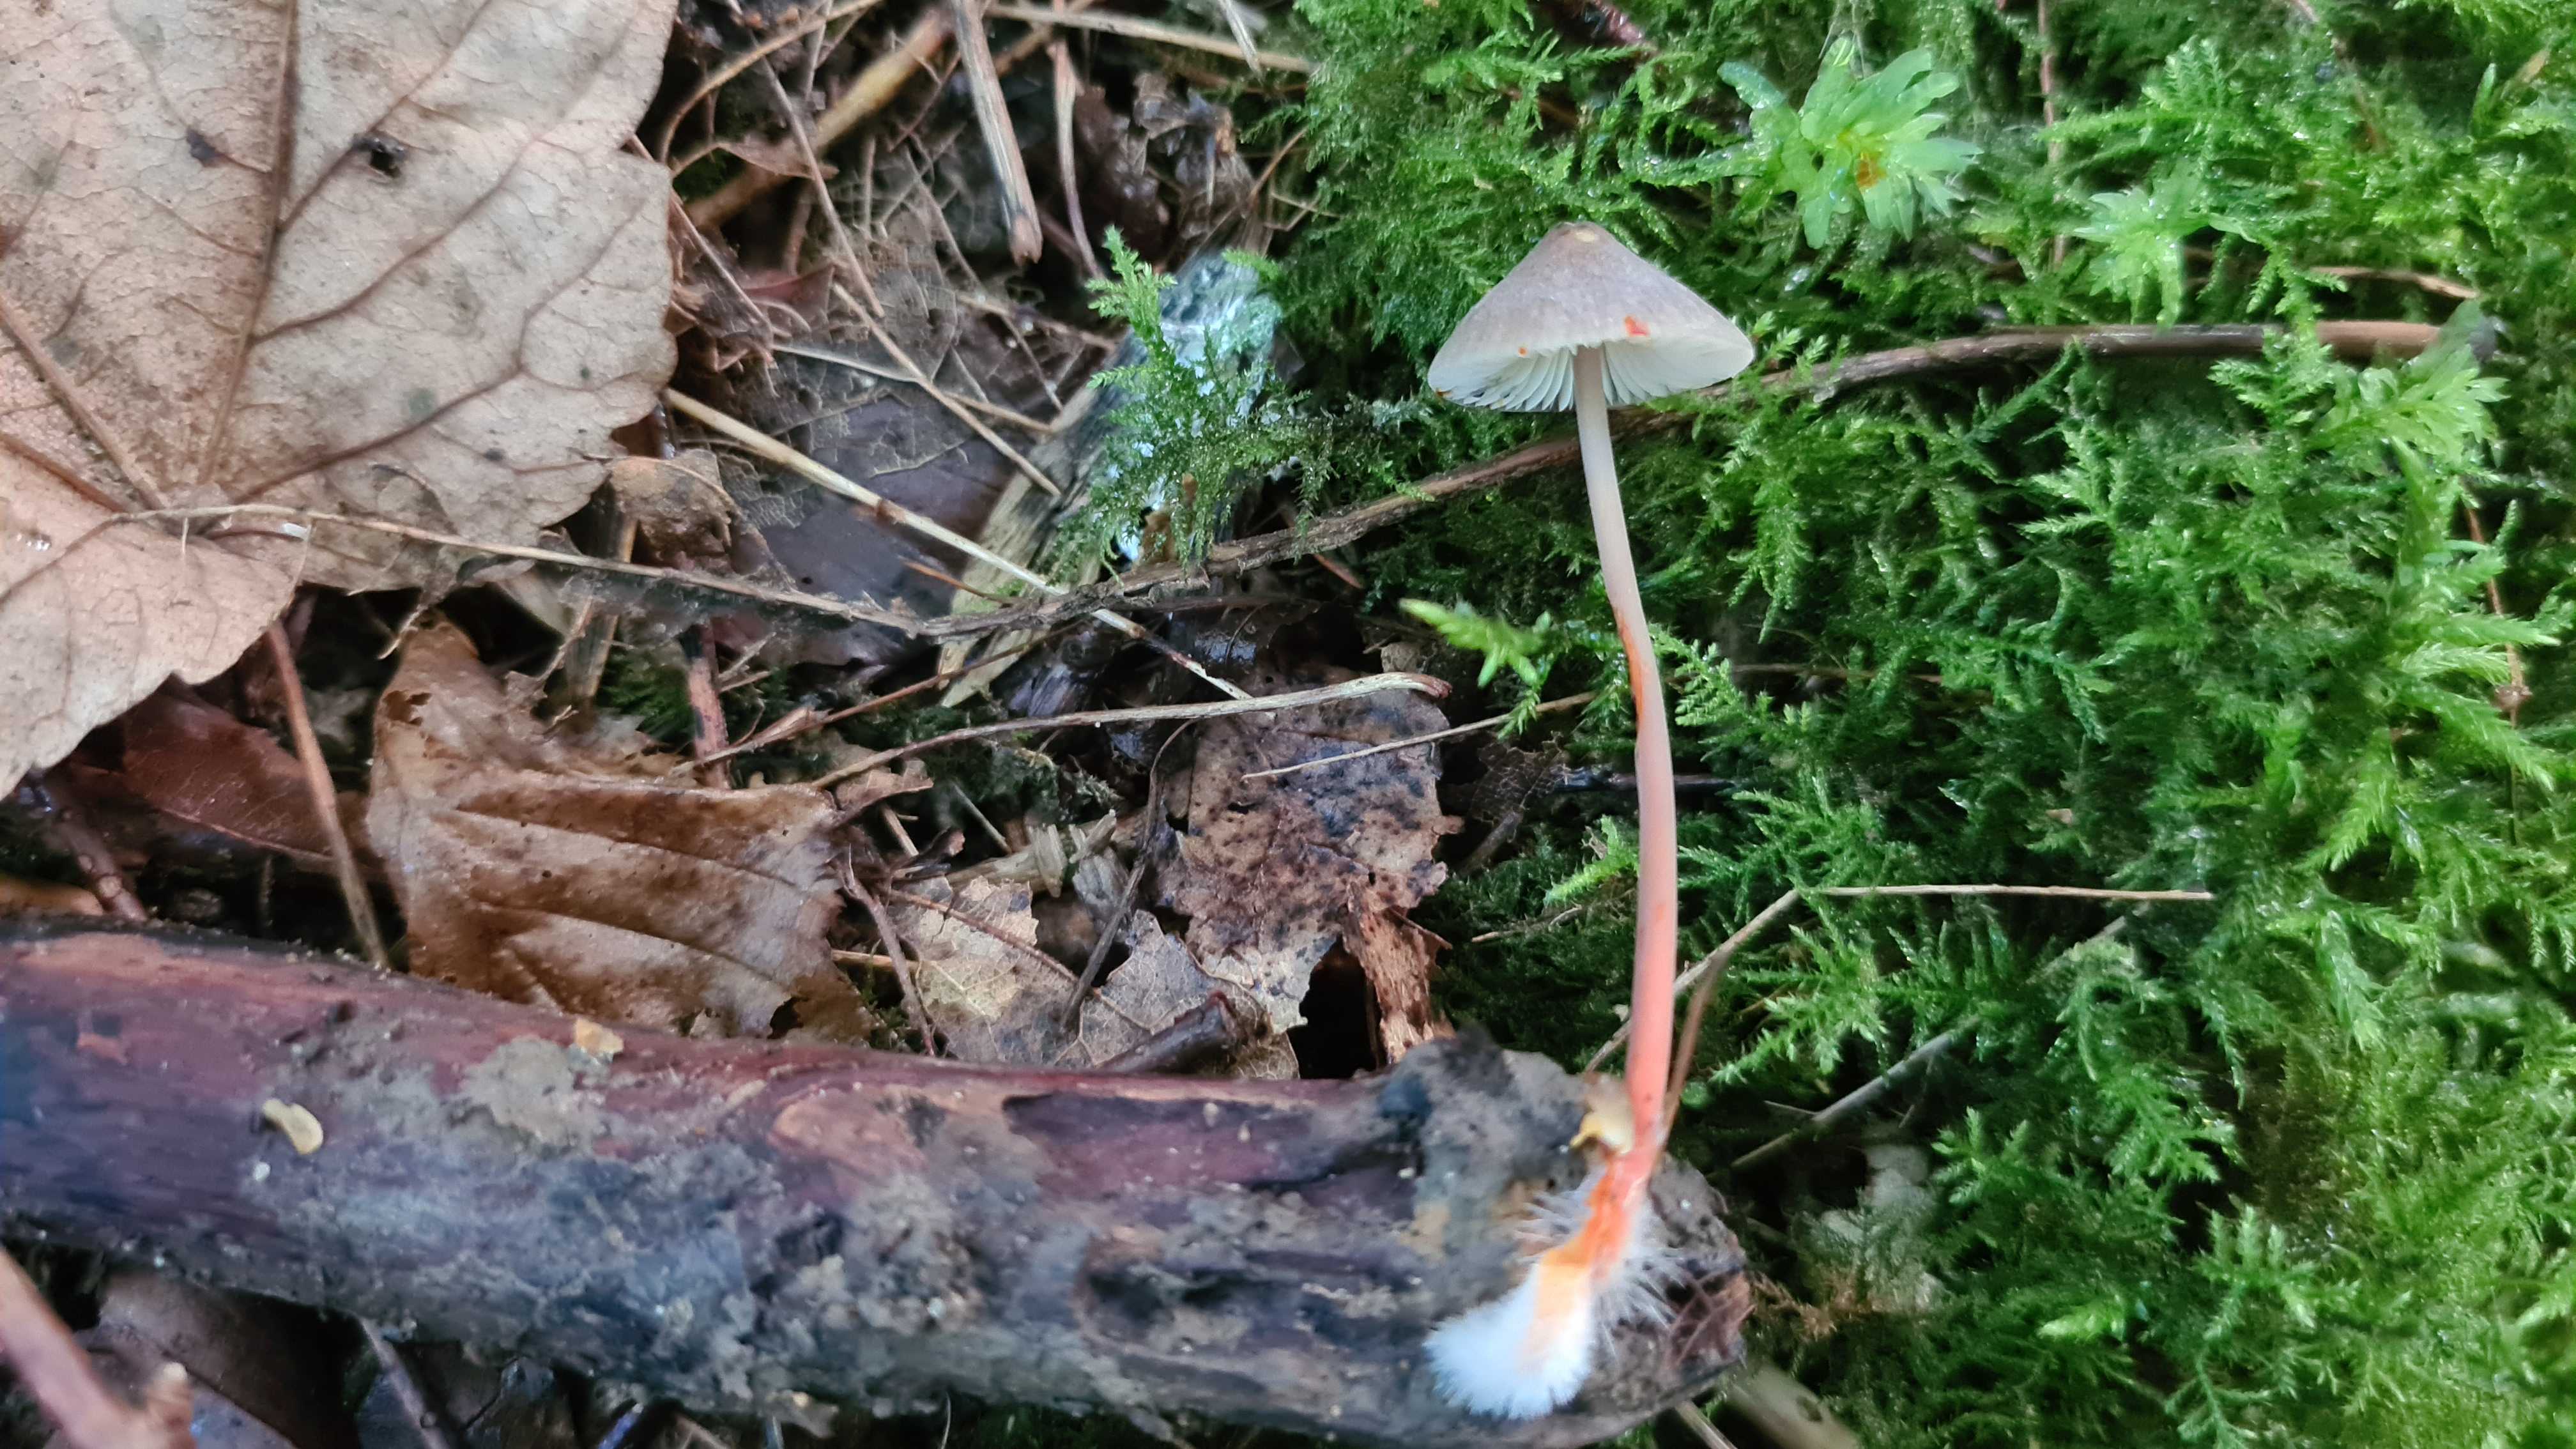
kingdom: Fungi
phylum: Basidiomycota
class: Agaricomycetes
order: Agaricales
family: Mycenaceae
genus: Mycena
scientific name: Mycena crocata
